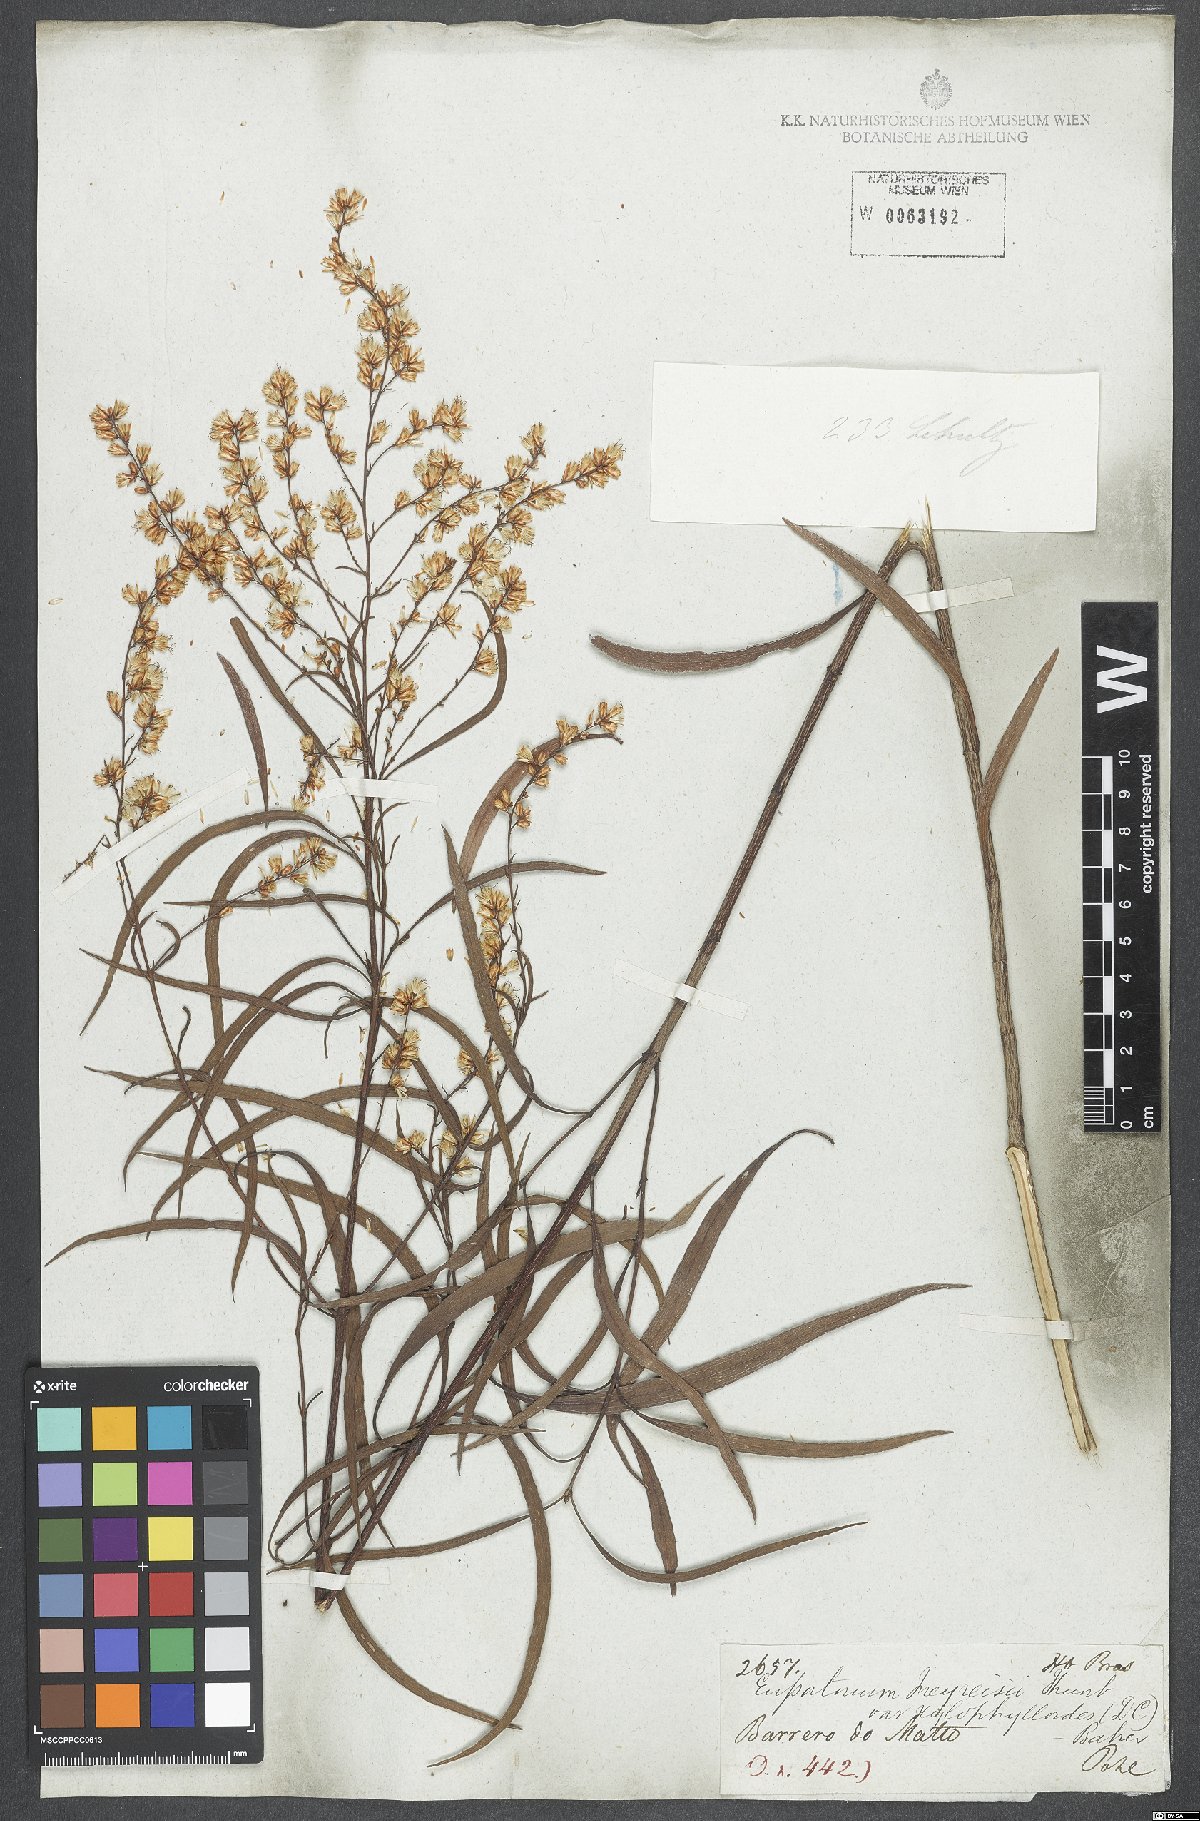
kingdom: Plantae
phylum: Tracheophyta
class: Magnoliopsida
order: Asterales
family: Asteraceae
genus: Raulinoreitzia
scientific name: Raulinoreitzia tremula
